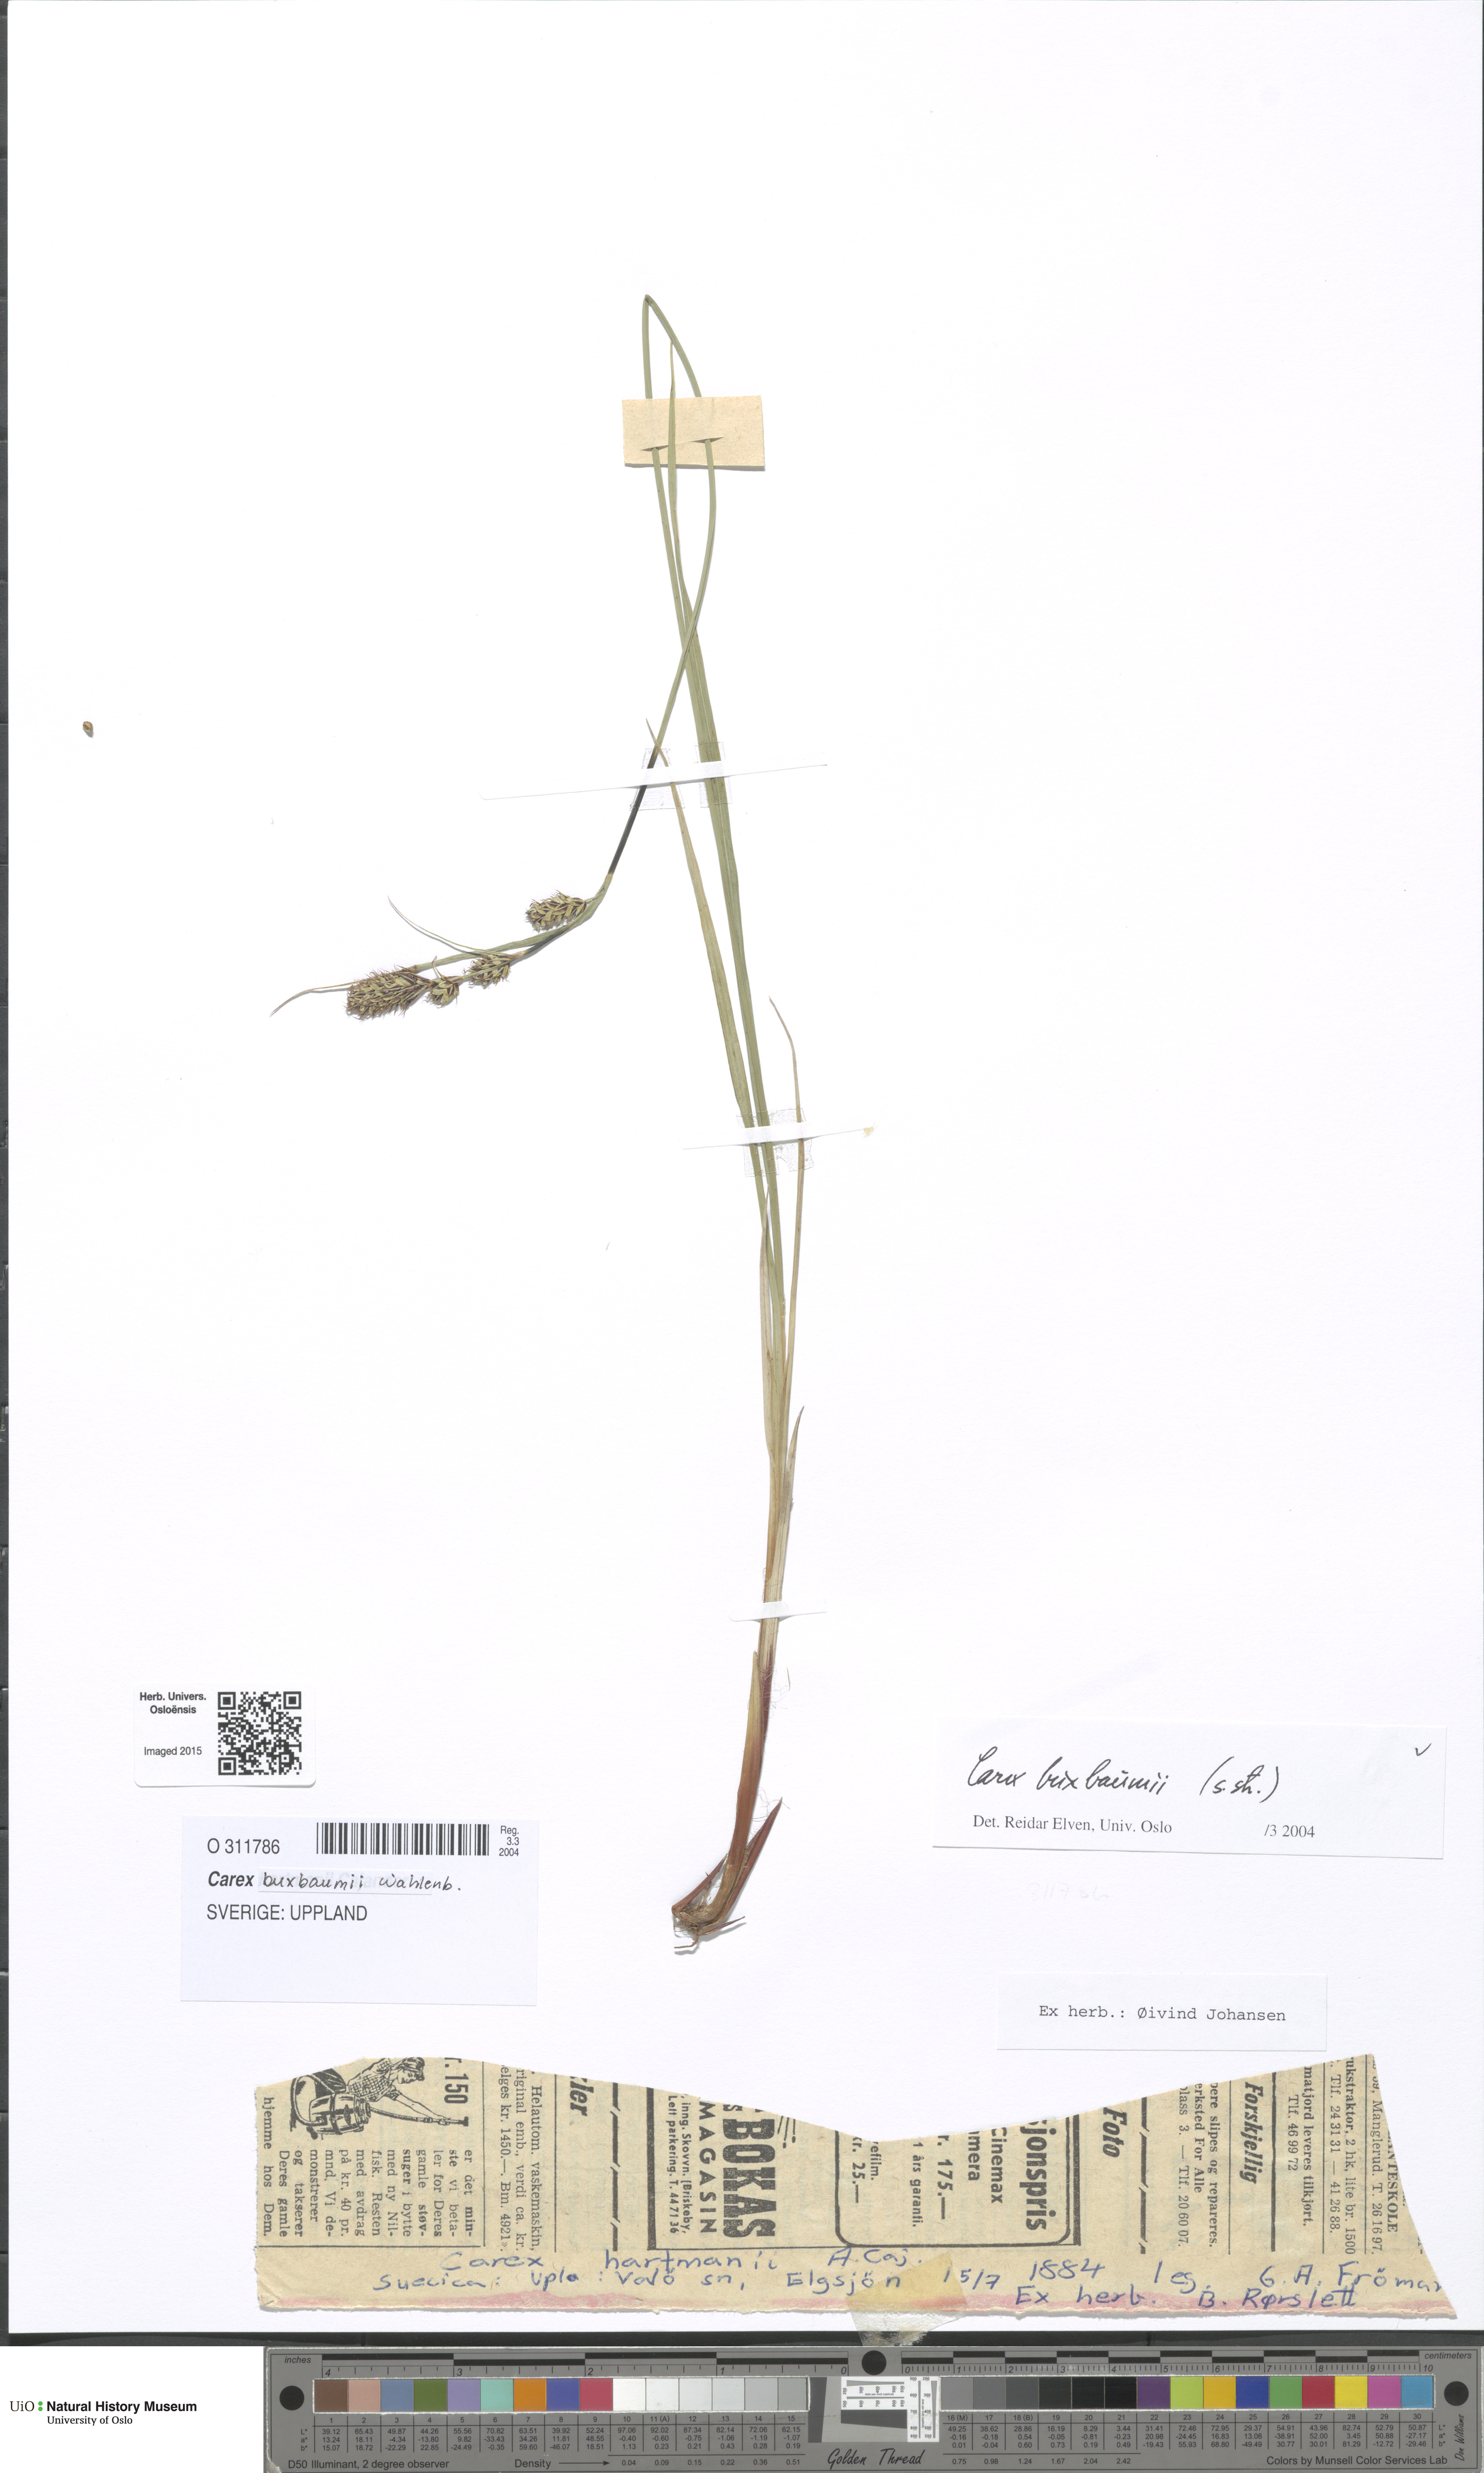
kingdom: Plantae
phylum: Tracheophyta
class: Liliopsida
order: Poales
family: Cyperaceae
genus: Carex
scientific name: Carex buxbaumii
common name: Club sedge
